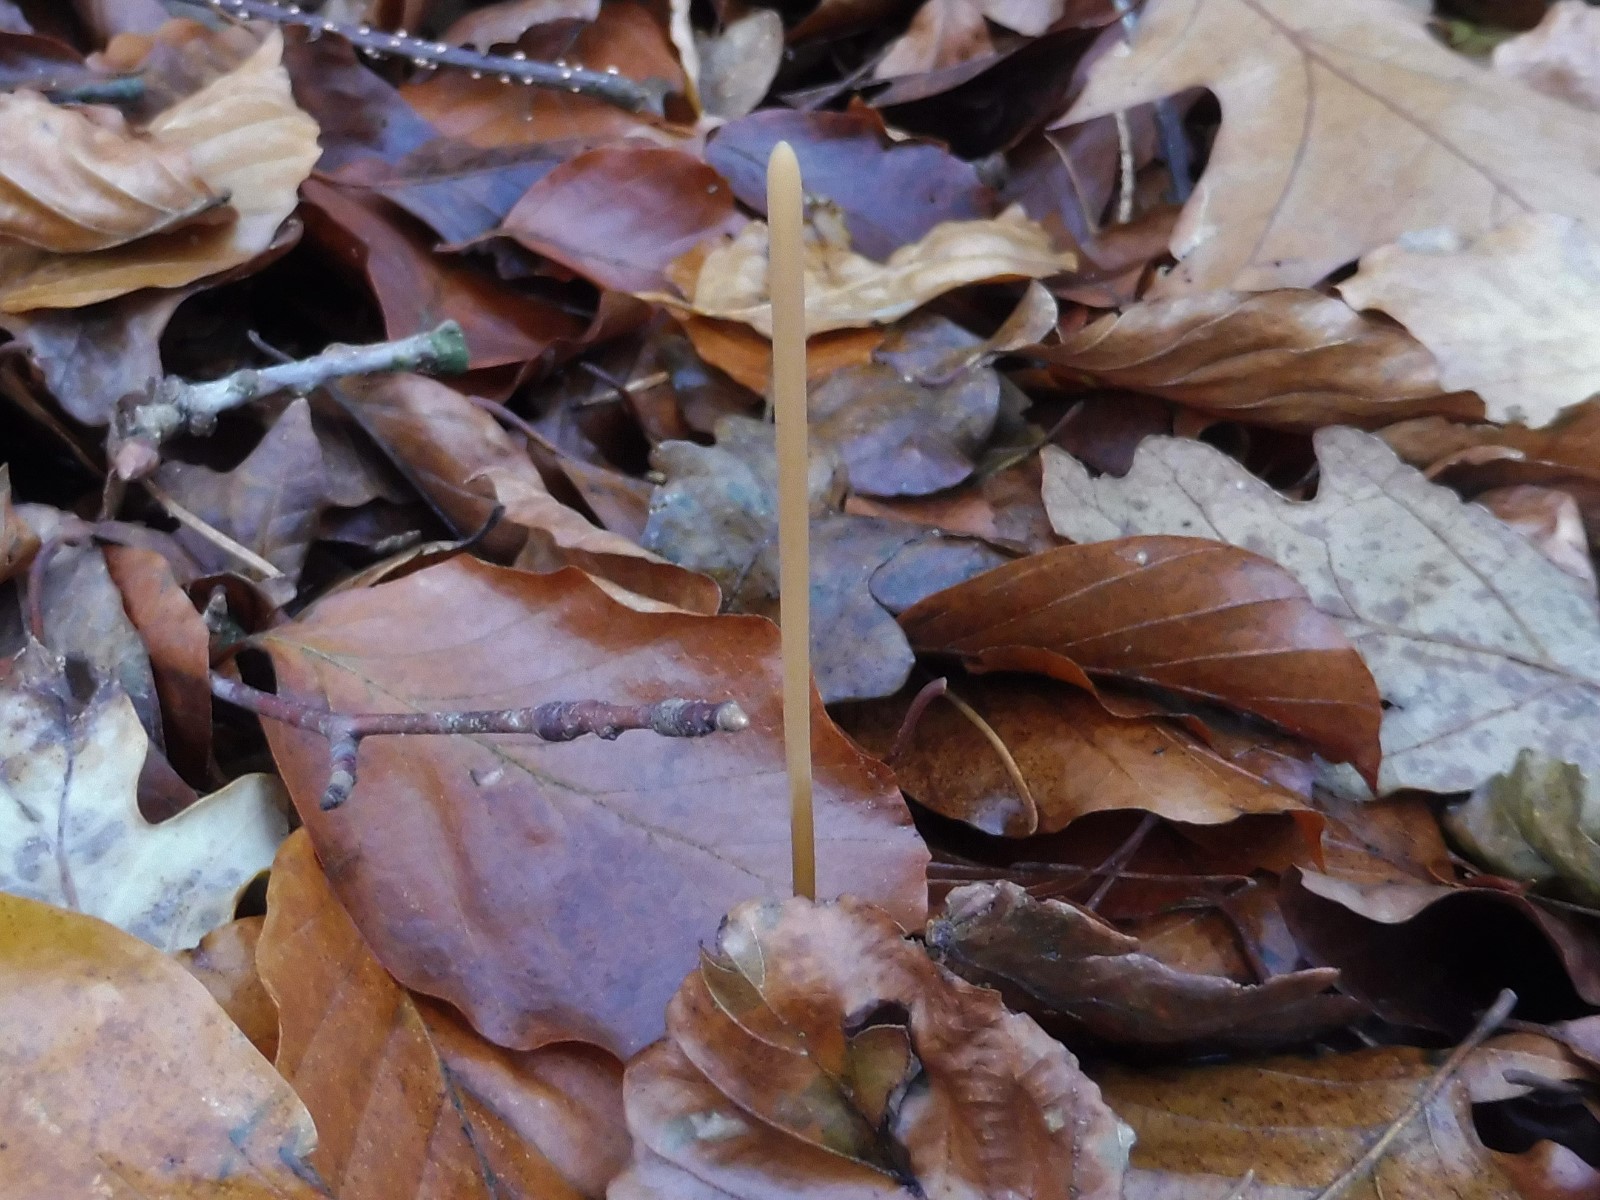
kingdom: Fungi
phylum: Basidiomycota
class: Agaricomycetes
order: Agaricales
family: Typhulaceae
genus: Typhula
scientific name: Typhula fistulosa
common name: pibet rørkølle
